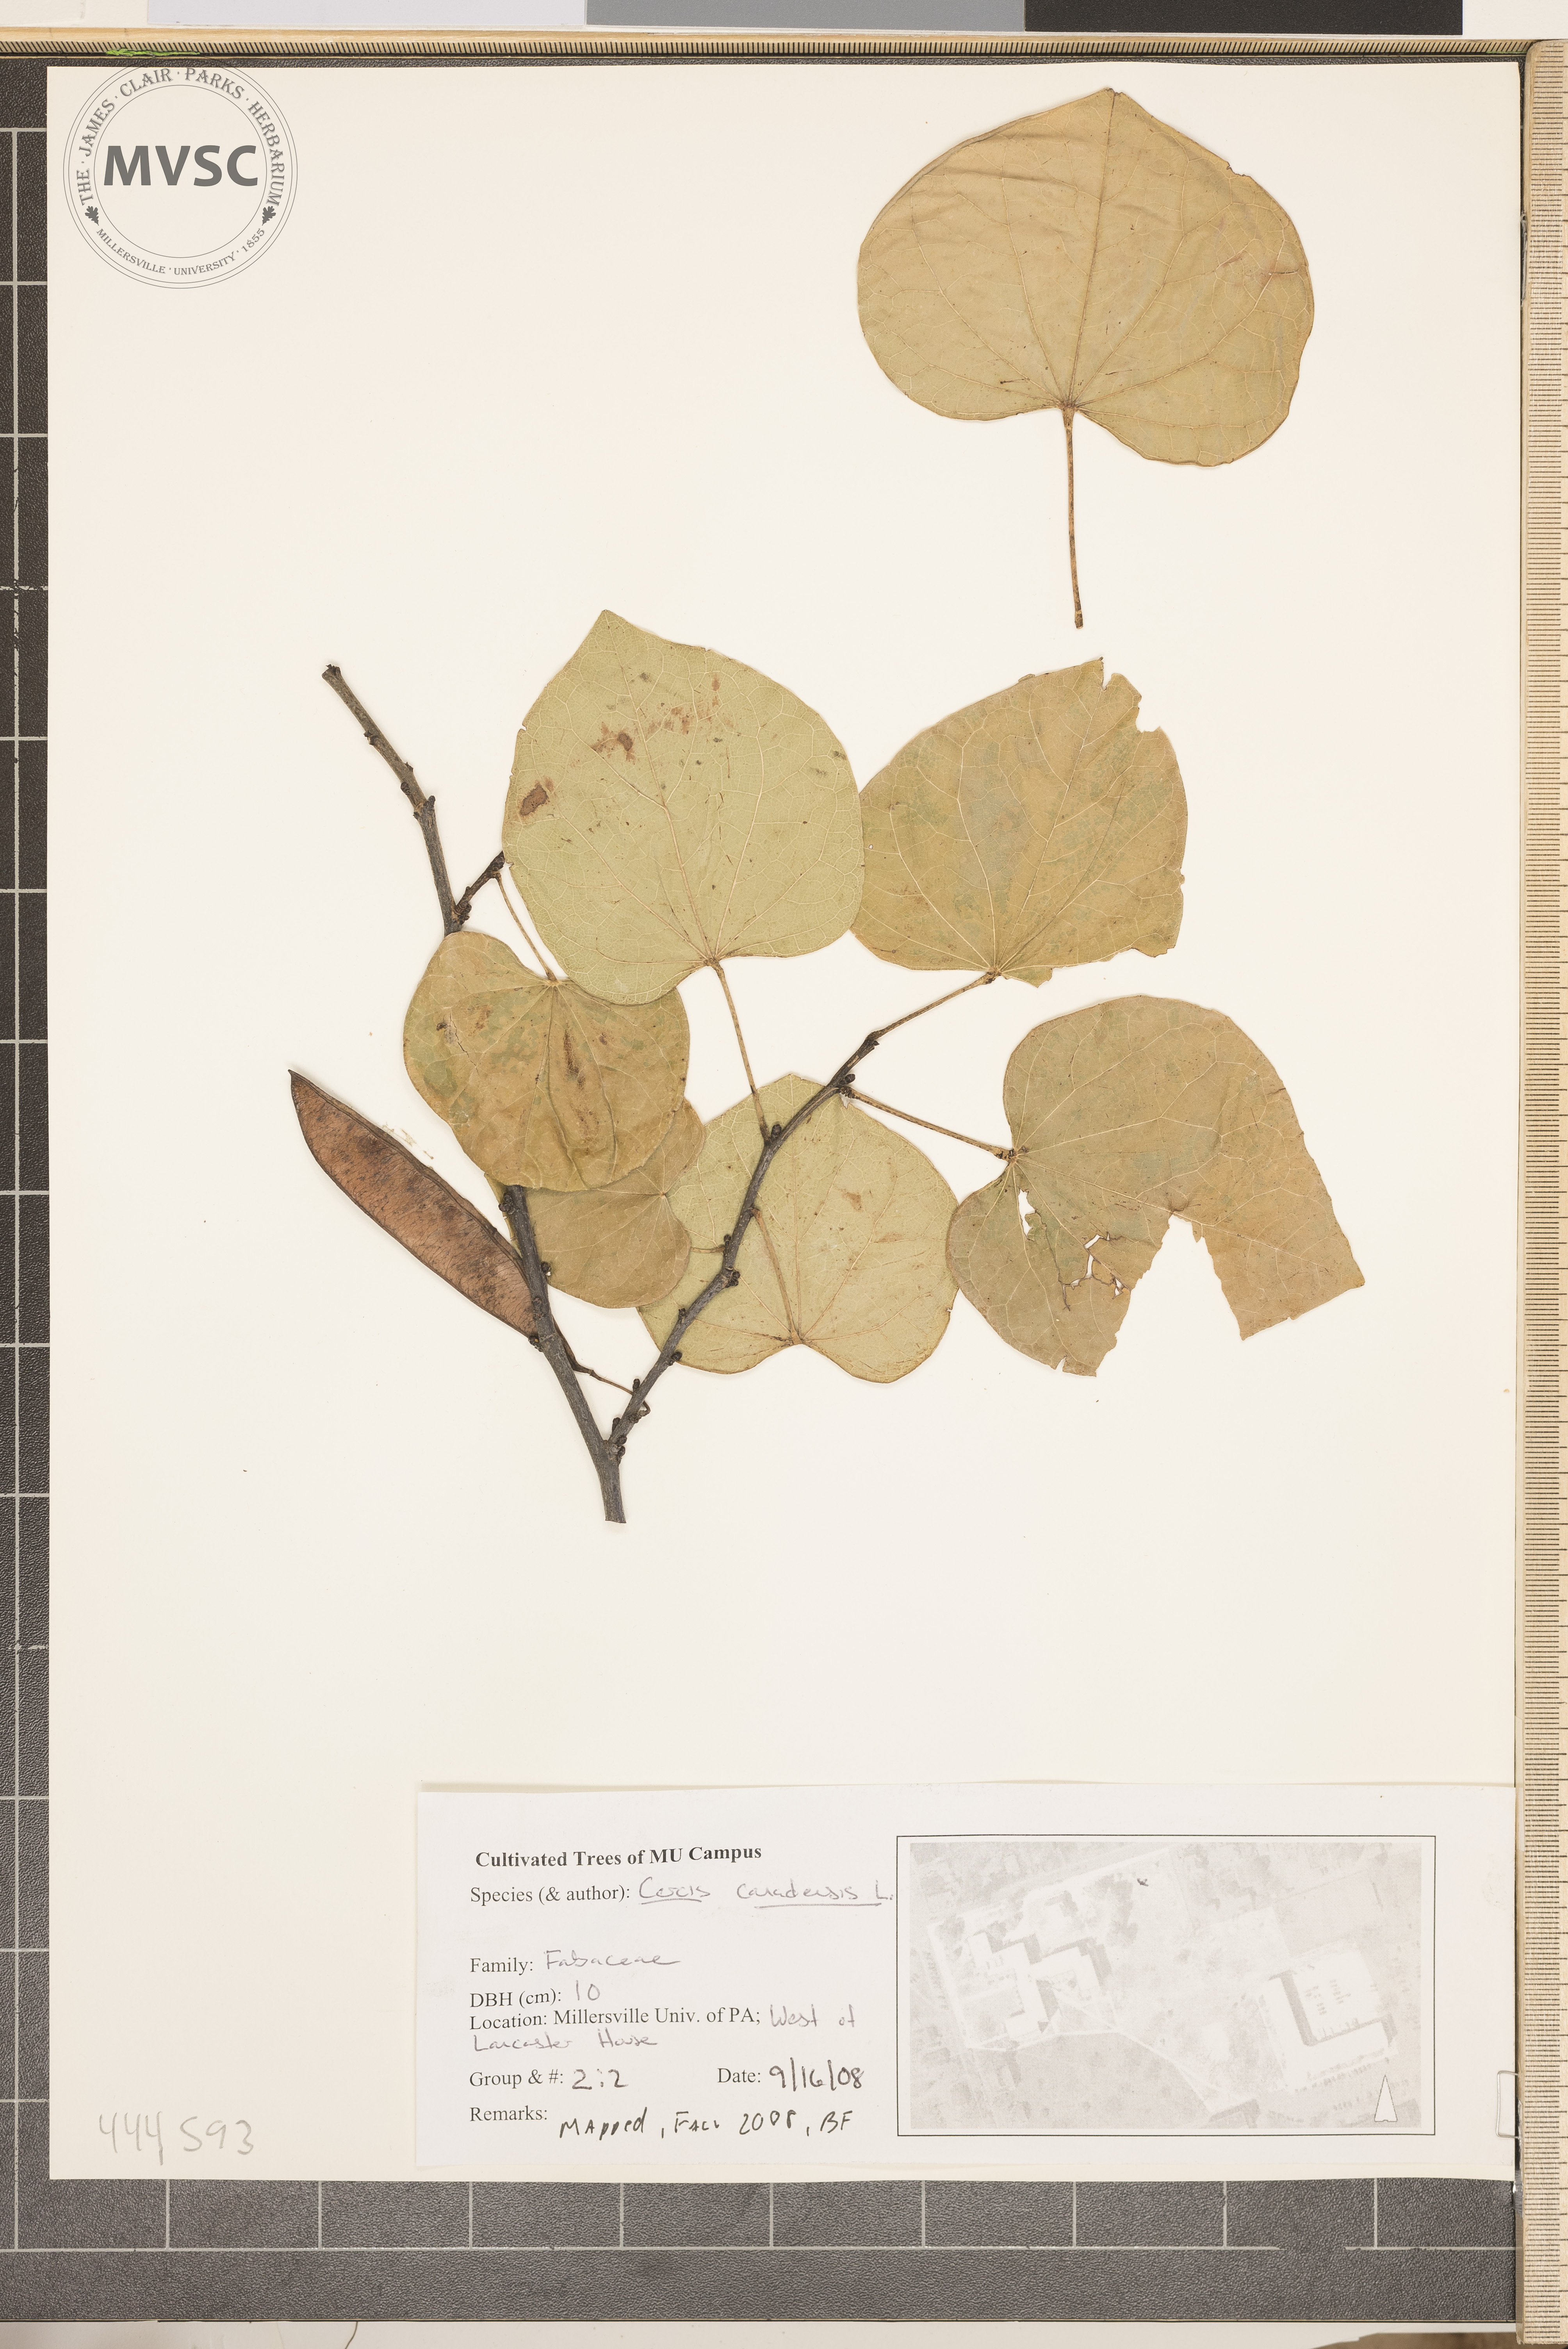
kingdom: Plantae
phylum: Tracheophyta
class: Magnoliopsida
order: Fabales
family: Fabaceae
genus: Cercis
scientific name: Cercis canadensis
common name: Eastern redbud
